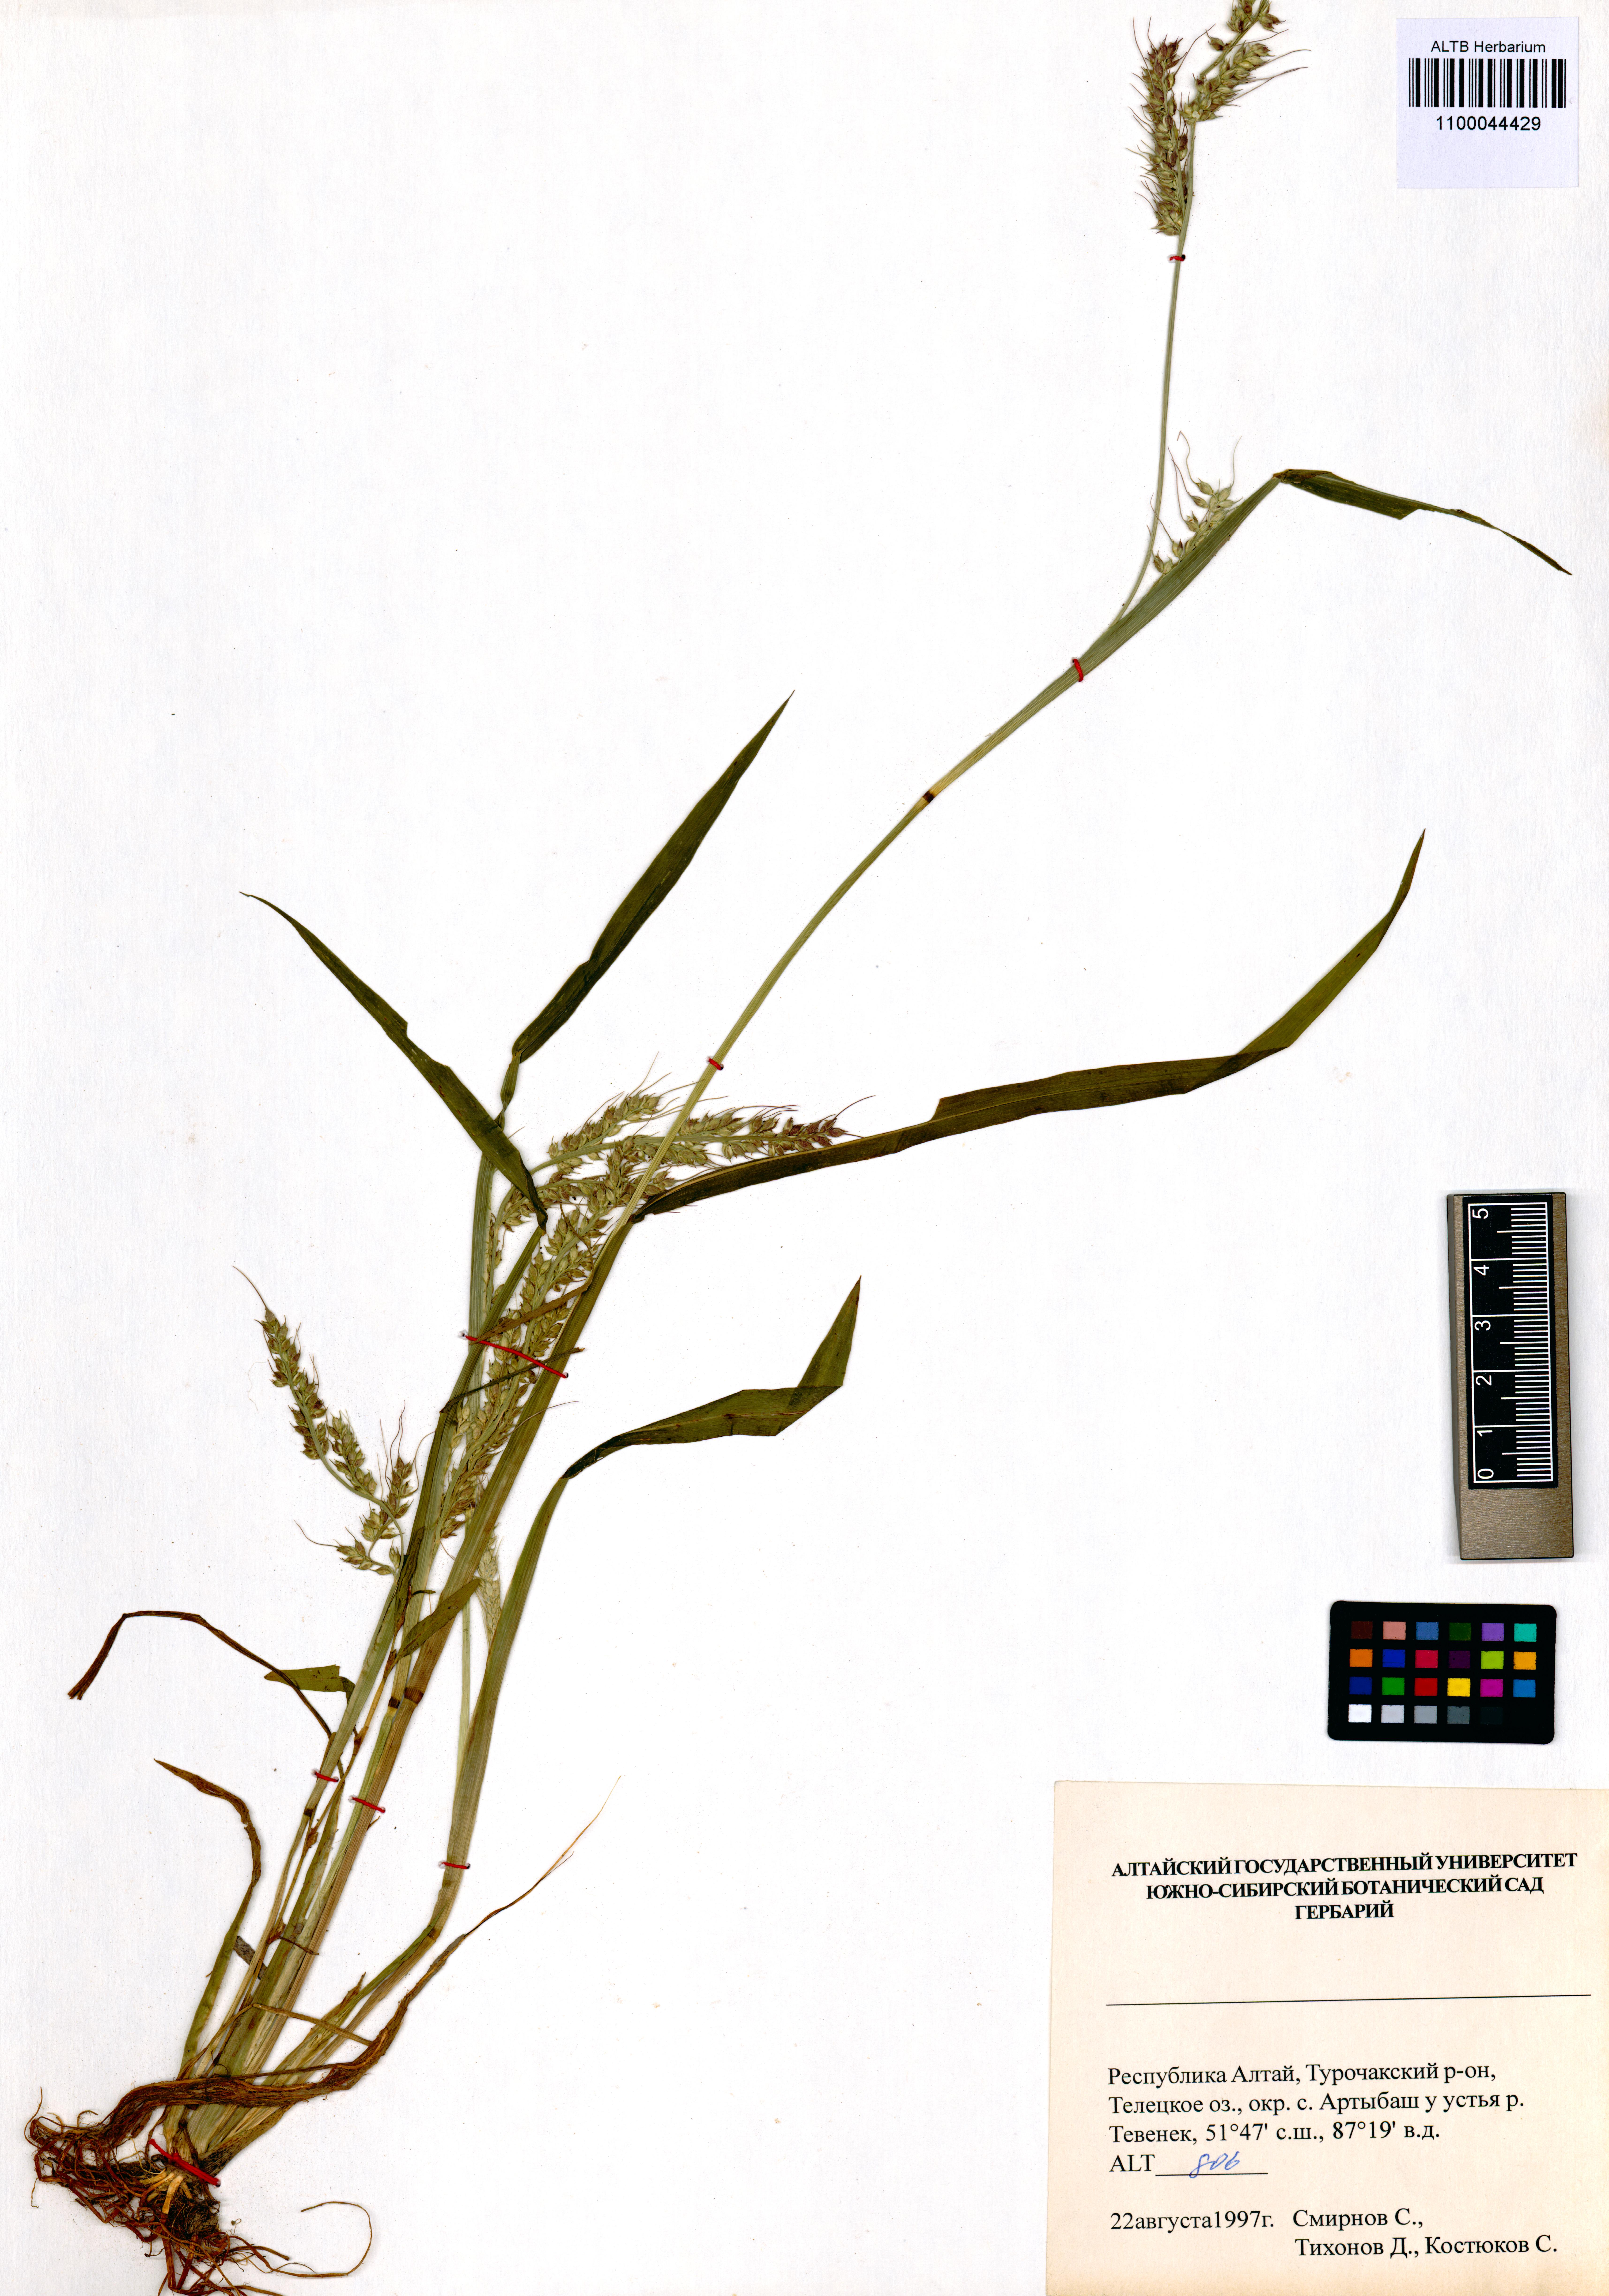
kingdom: Plantae
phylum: Tracheophyta
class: Liliopsida
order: Poales
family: Poaceae
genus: Echinochloa
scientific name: Echinochloa crus-galli
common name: Cockspur
